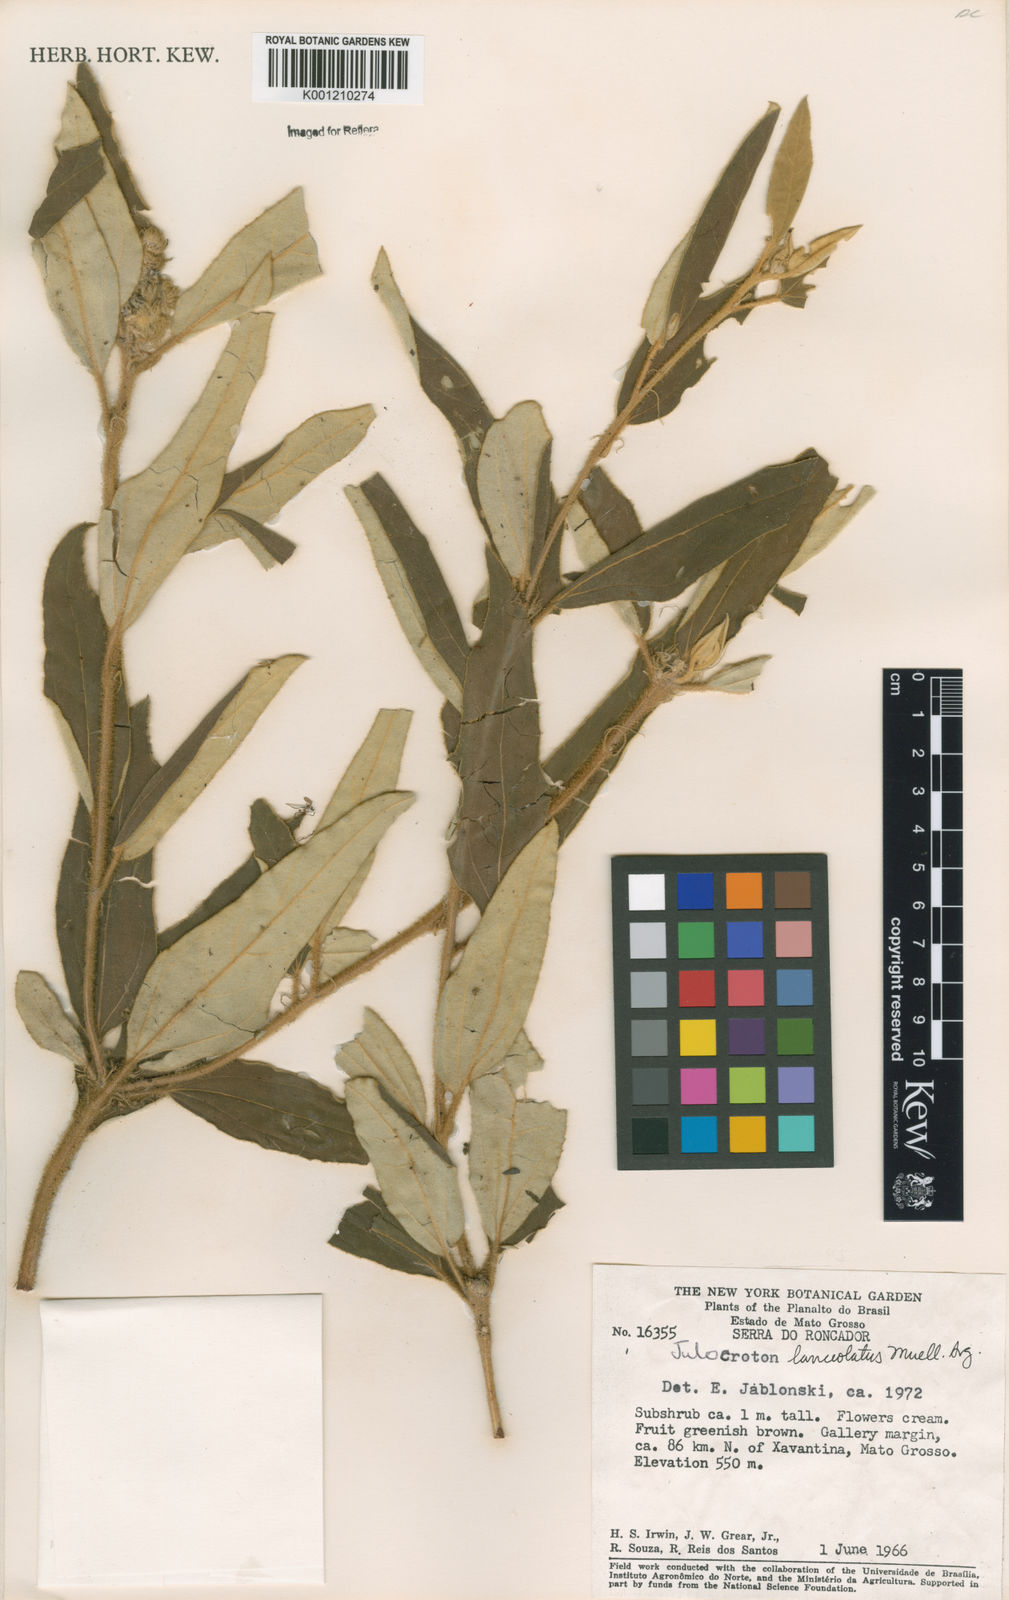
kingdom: Plantae
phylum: Tracheophyta
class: Magnoliopsida
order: Malpighiales
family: Euphorbiaceae
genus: Croton
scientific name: Croton
